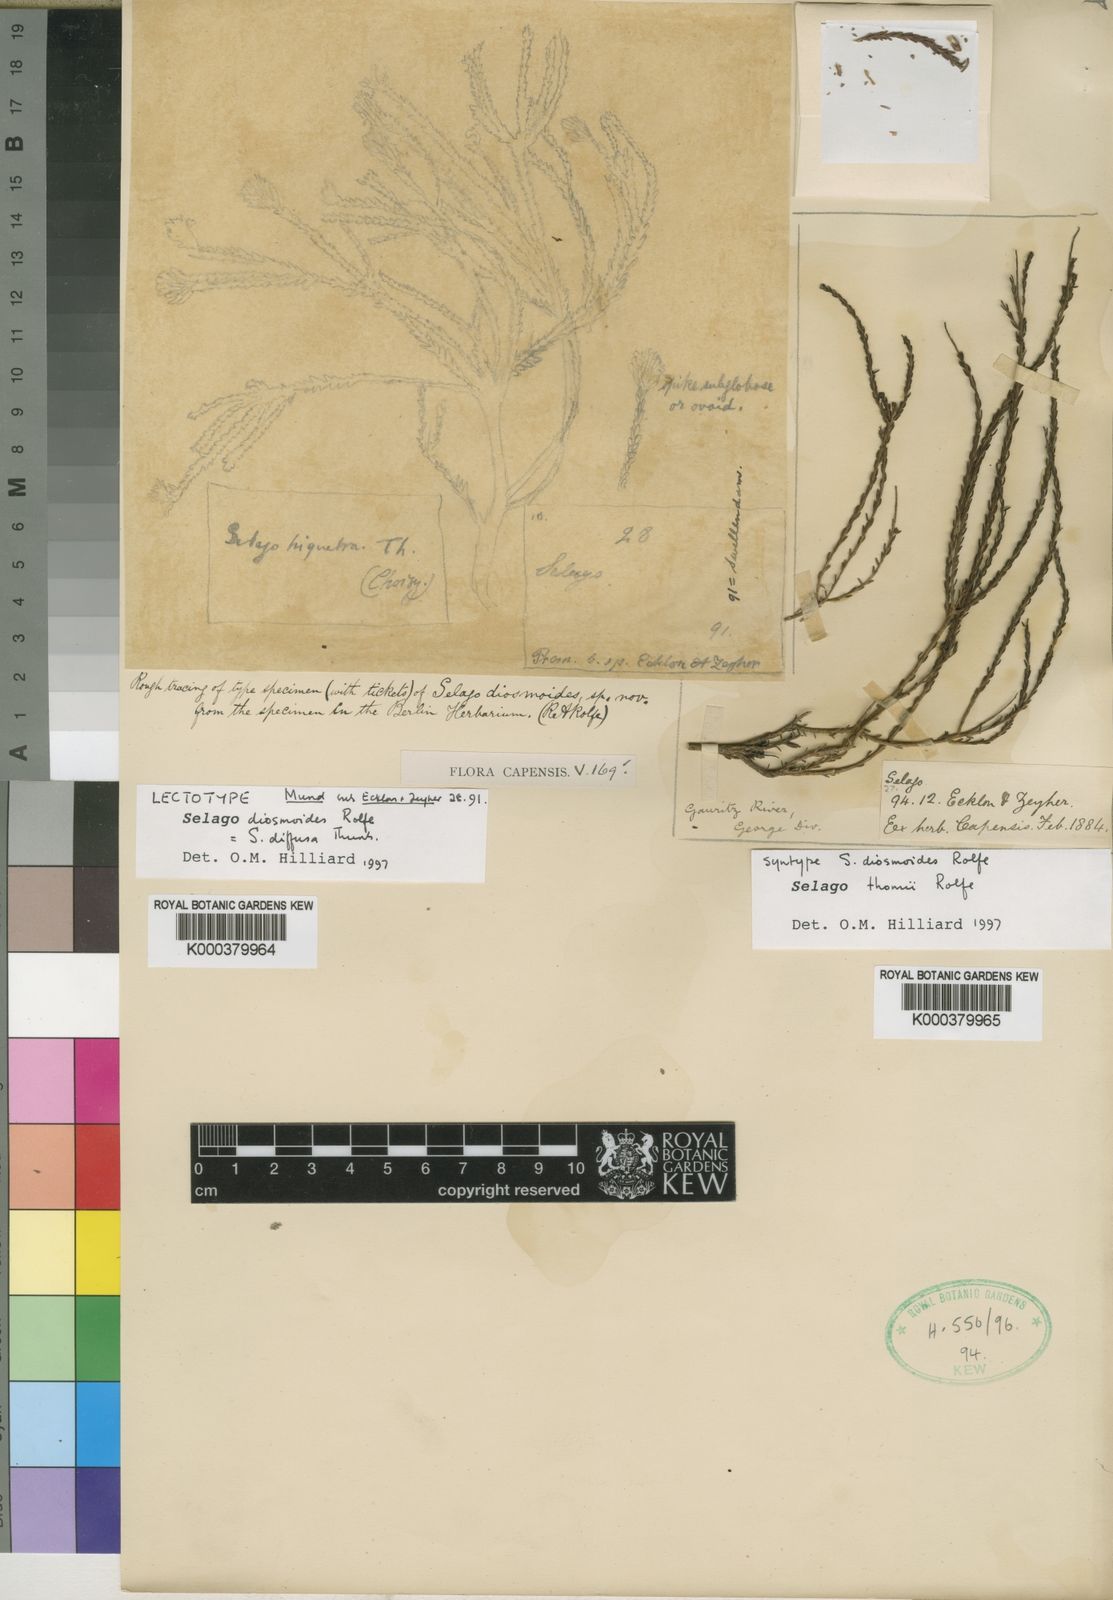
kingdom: Plantae
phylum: Tracheophyta
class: Magnoliopsida
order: Lamiales
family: Scrophulariaceae
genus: Selago
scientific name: Selago diffusa
